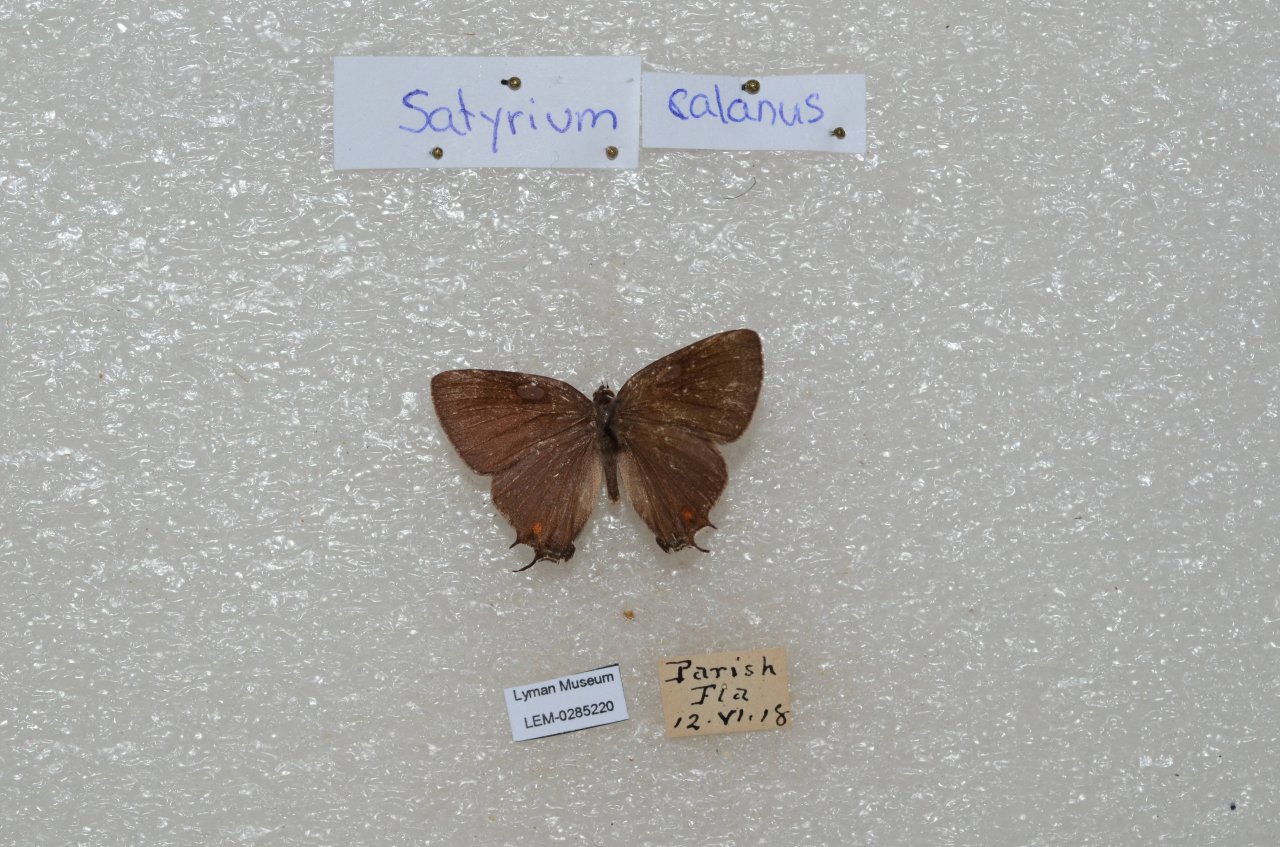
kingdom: Animalia
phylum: Arthropoda
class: Insecta
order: Lepidoptera
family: Lycaenidae
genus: Satyrium
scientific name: Satyrium calanus
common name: Banded Hairstreak
